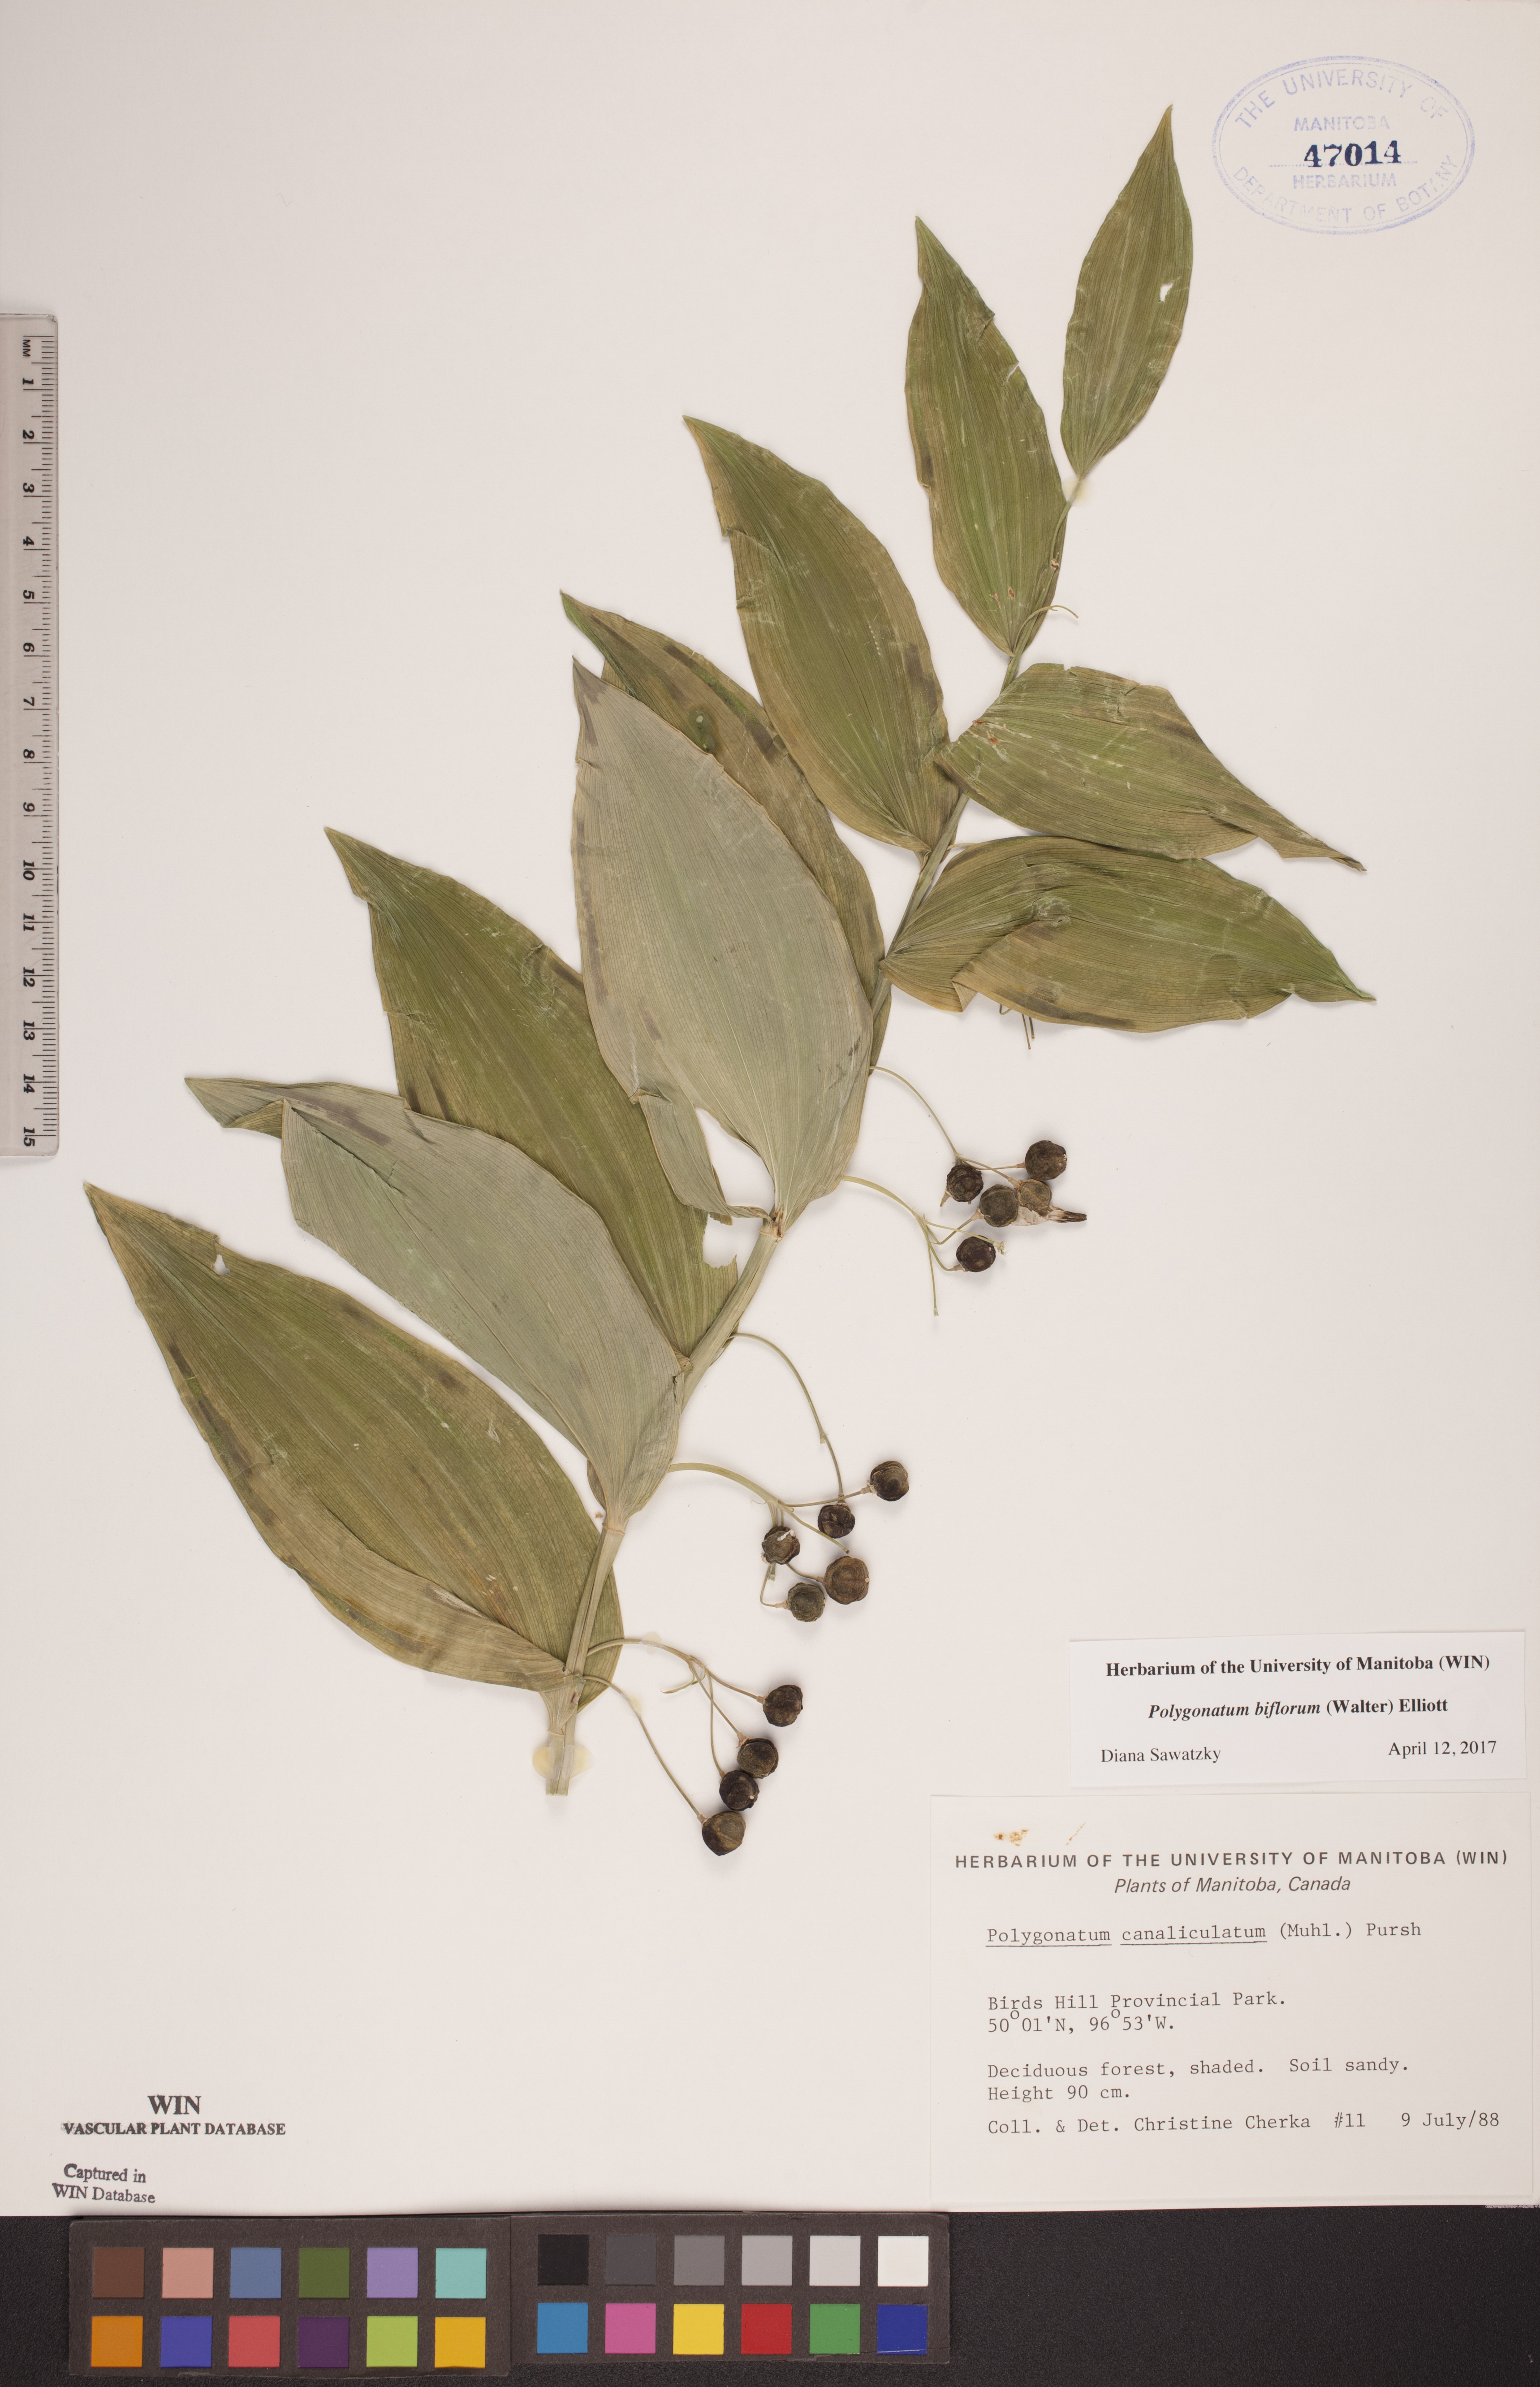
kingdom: Plantae
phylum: Tracheophyta
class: Liliopsida
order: Asparagales
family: Asparagaceae
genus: Polygonatum
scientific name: Polygonatum biflorum
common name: American solomon's-seal
